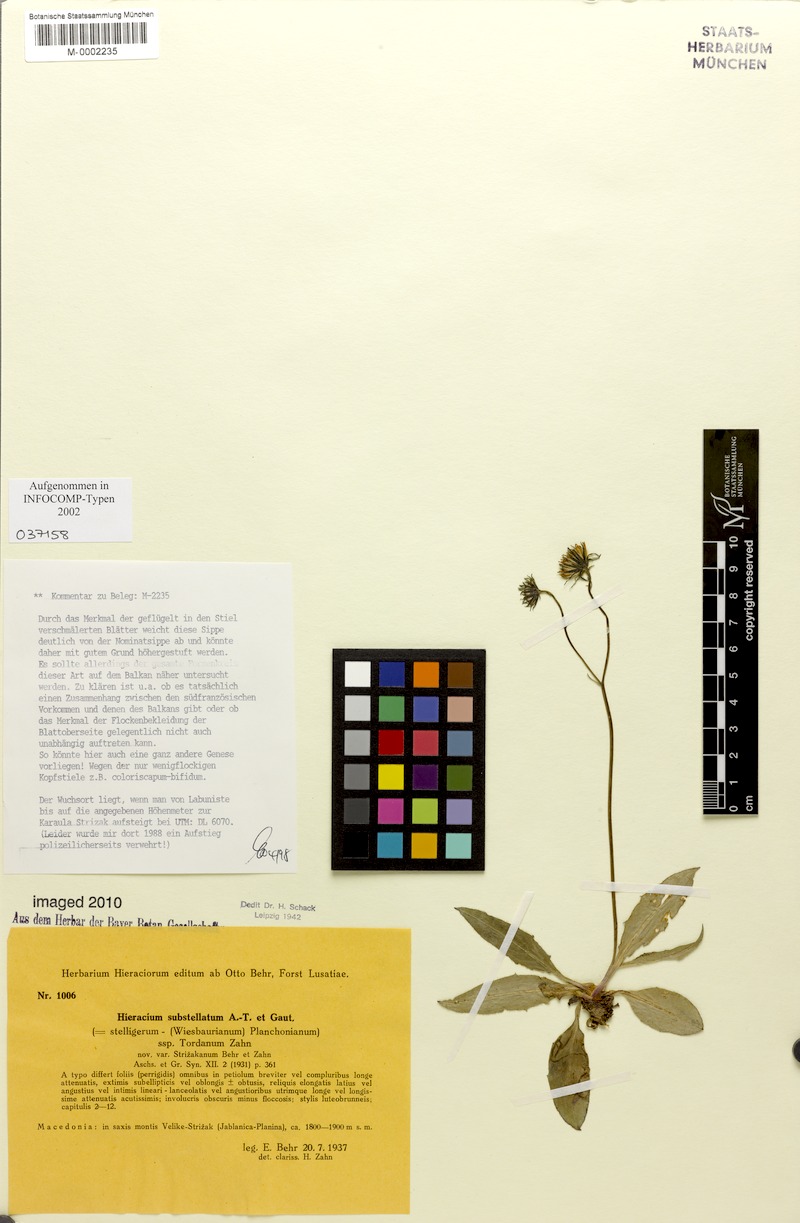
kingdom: Plantae
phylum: Tracheophyta
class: Magnoliopsida
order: Asterales
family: Asteraceae
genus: Hieracium
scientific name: Hieracium substellatum
